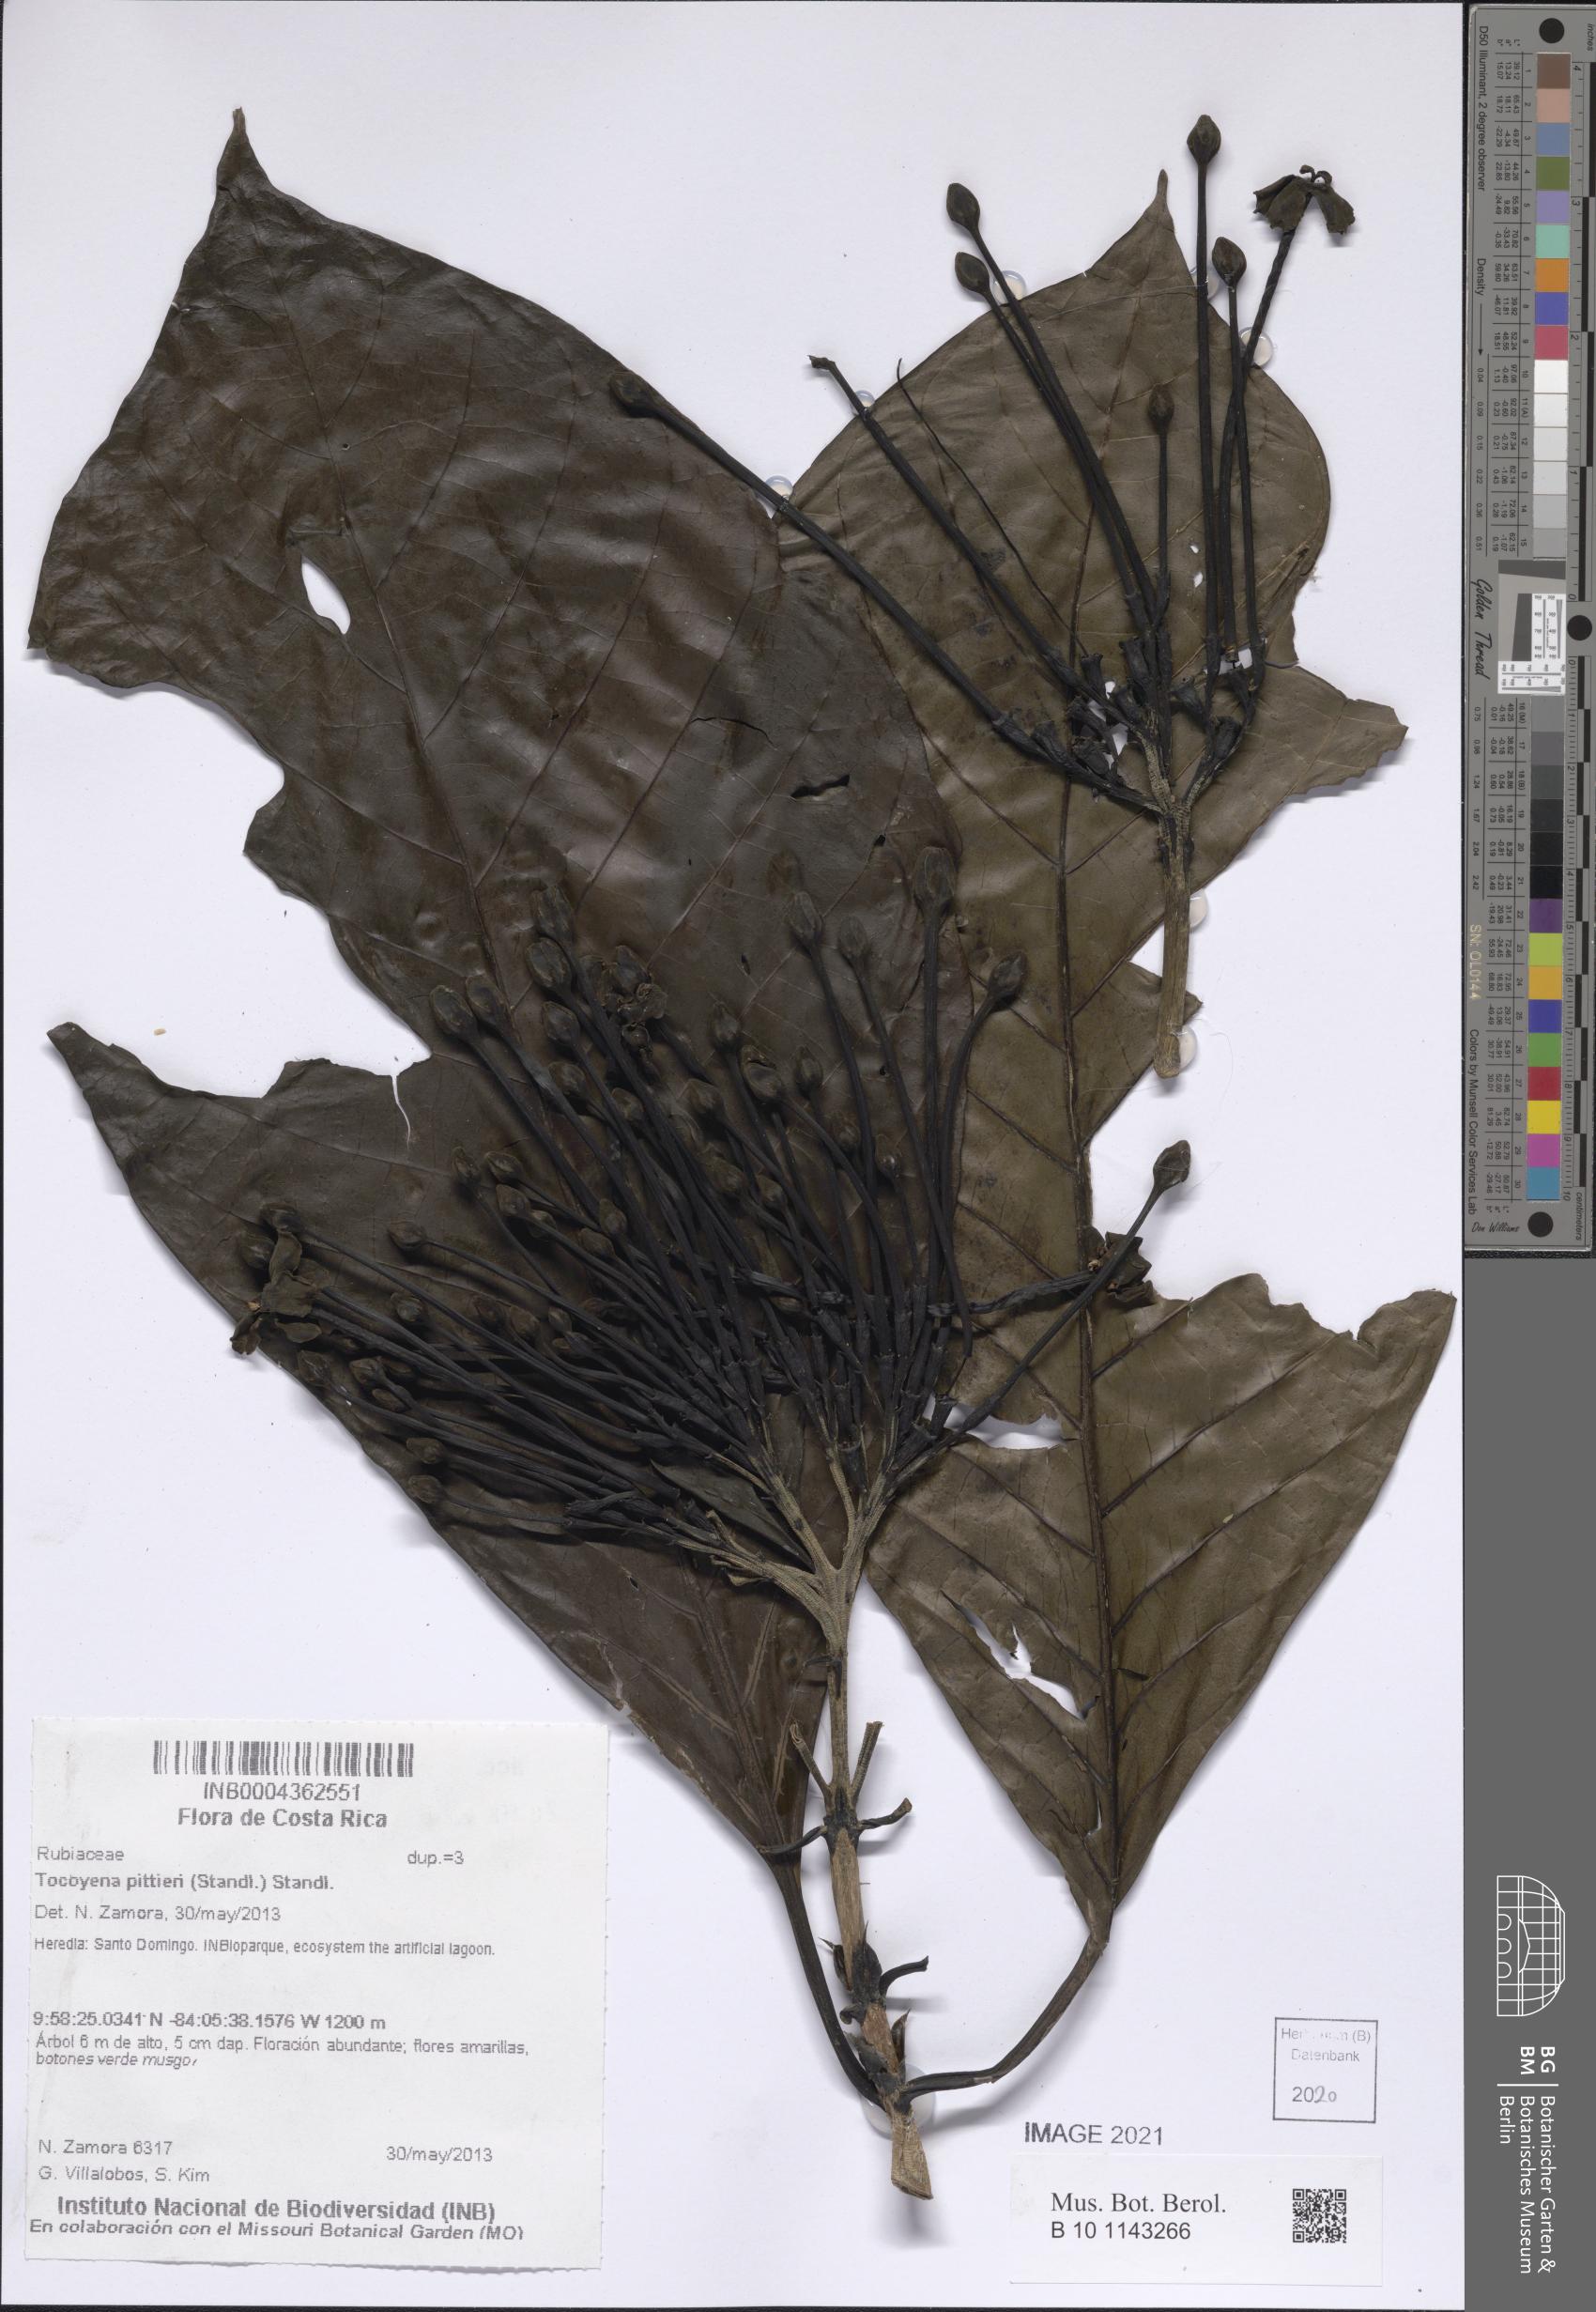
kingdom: Plantae
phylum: Tracheophyta
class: Magnoliopsida
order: Gentianales
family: Rubiaceae
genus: Tocoyena
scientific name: Tocoyena pittieri
